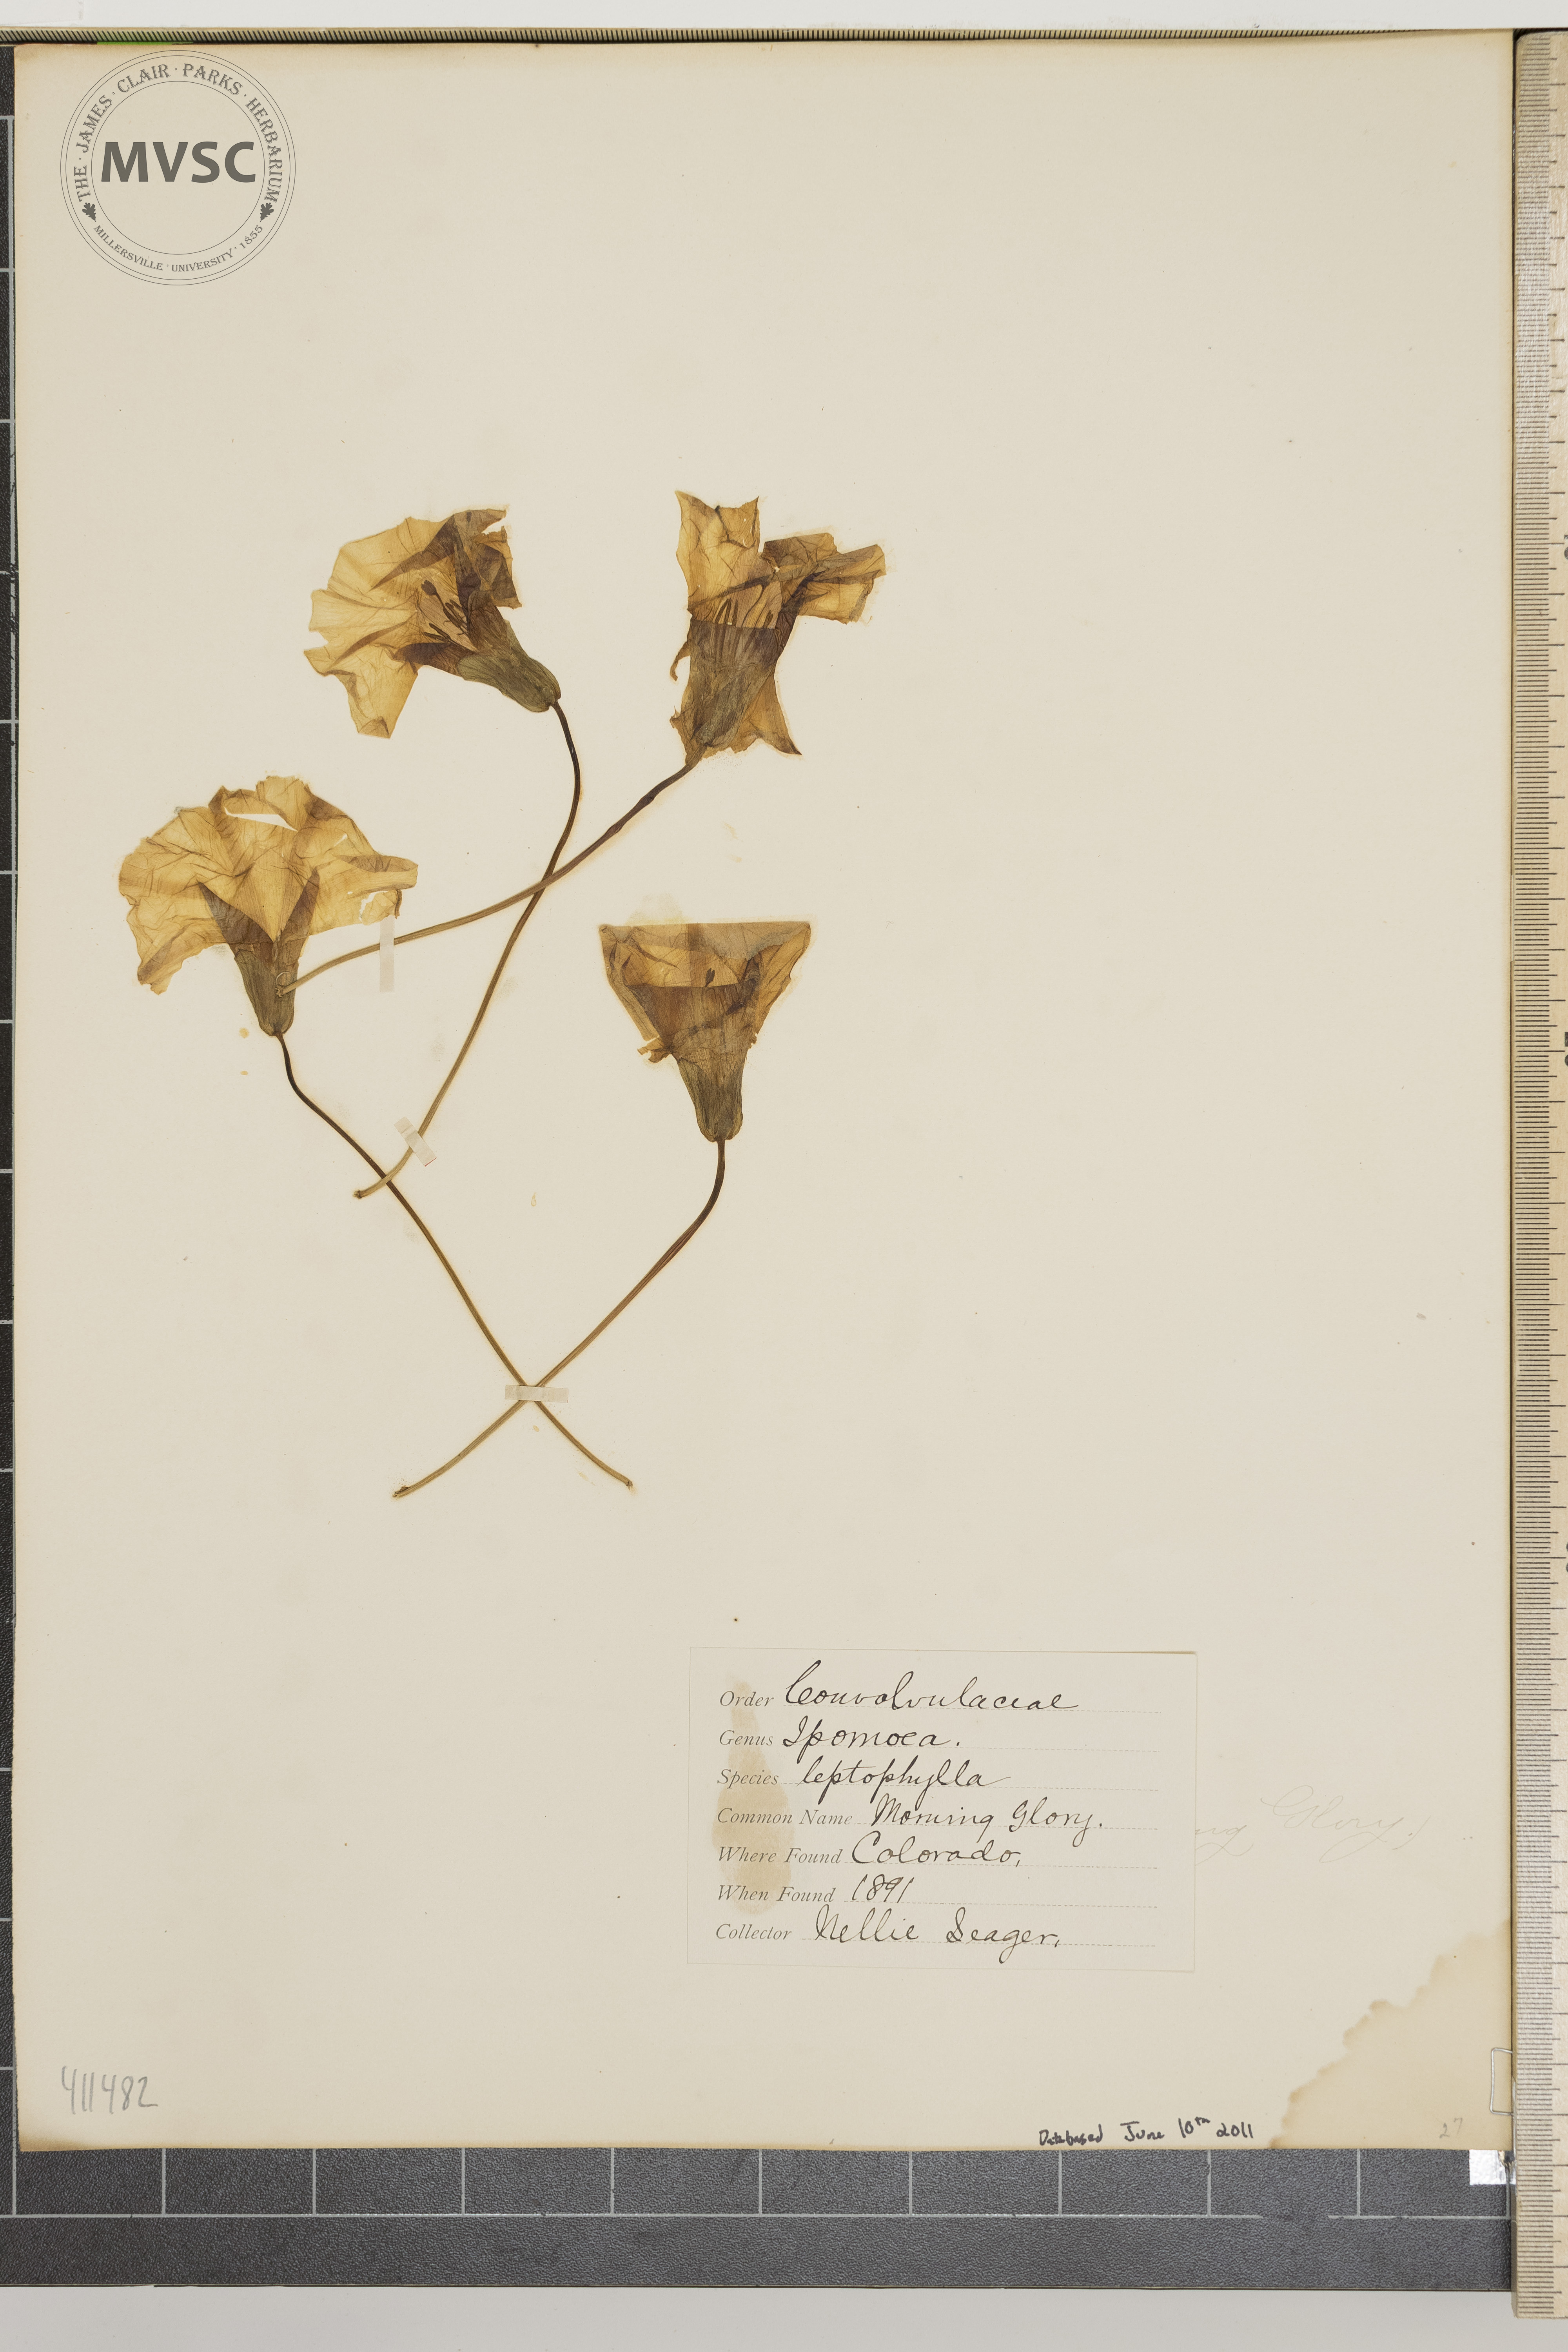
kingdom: Plantae
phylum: Tracheophyta
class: Magnoliopsida
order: Solanales
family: Convolvulaceae
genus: Ipomoea
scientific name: Ipomoea leptophylla
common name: Morning glory
